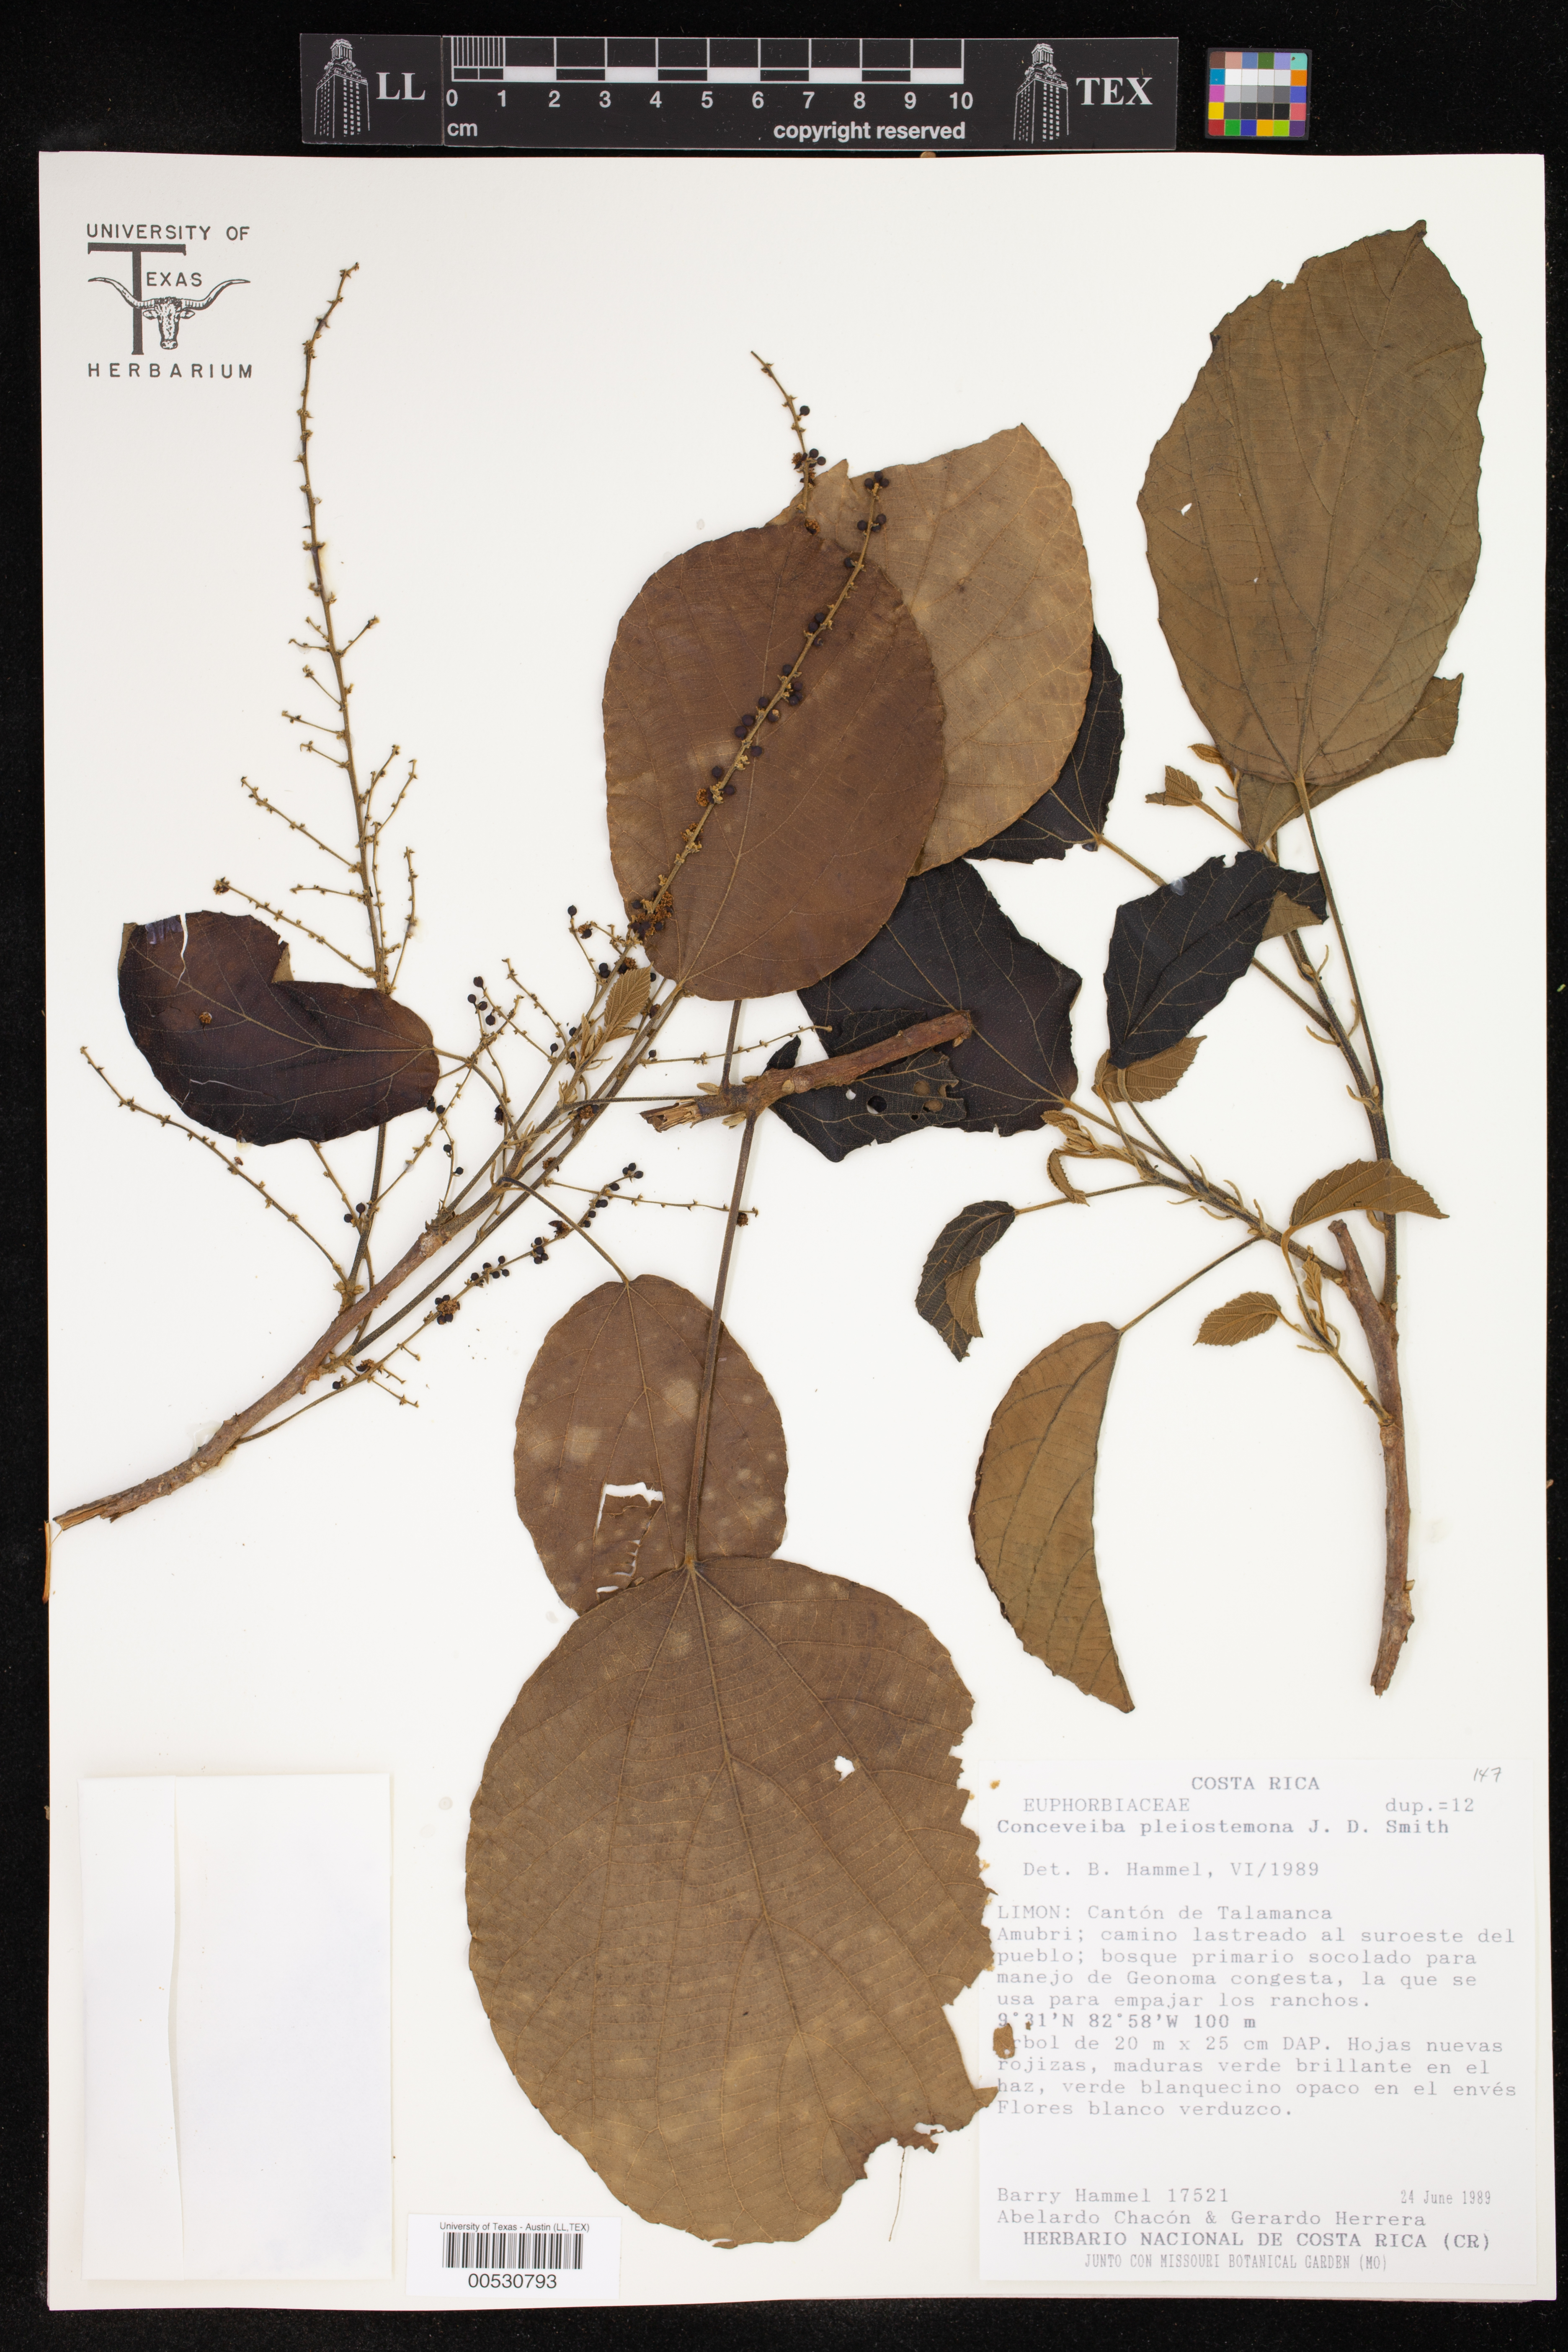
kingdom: Plantae
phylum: Tracheophyta
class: Magnoliopsida
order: Malpighiales
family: Euphorbiaceae
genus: Conceveiba
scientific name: Conceveiba pleiostemona
